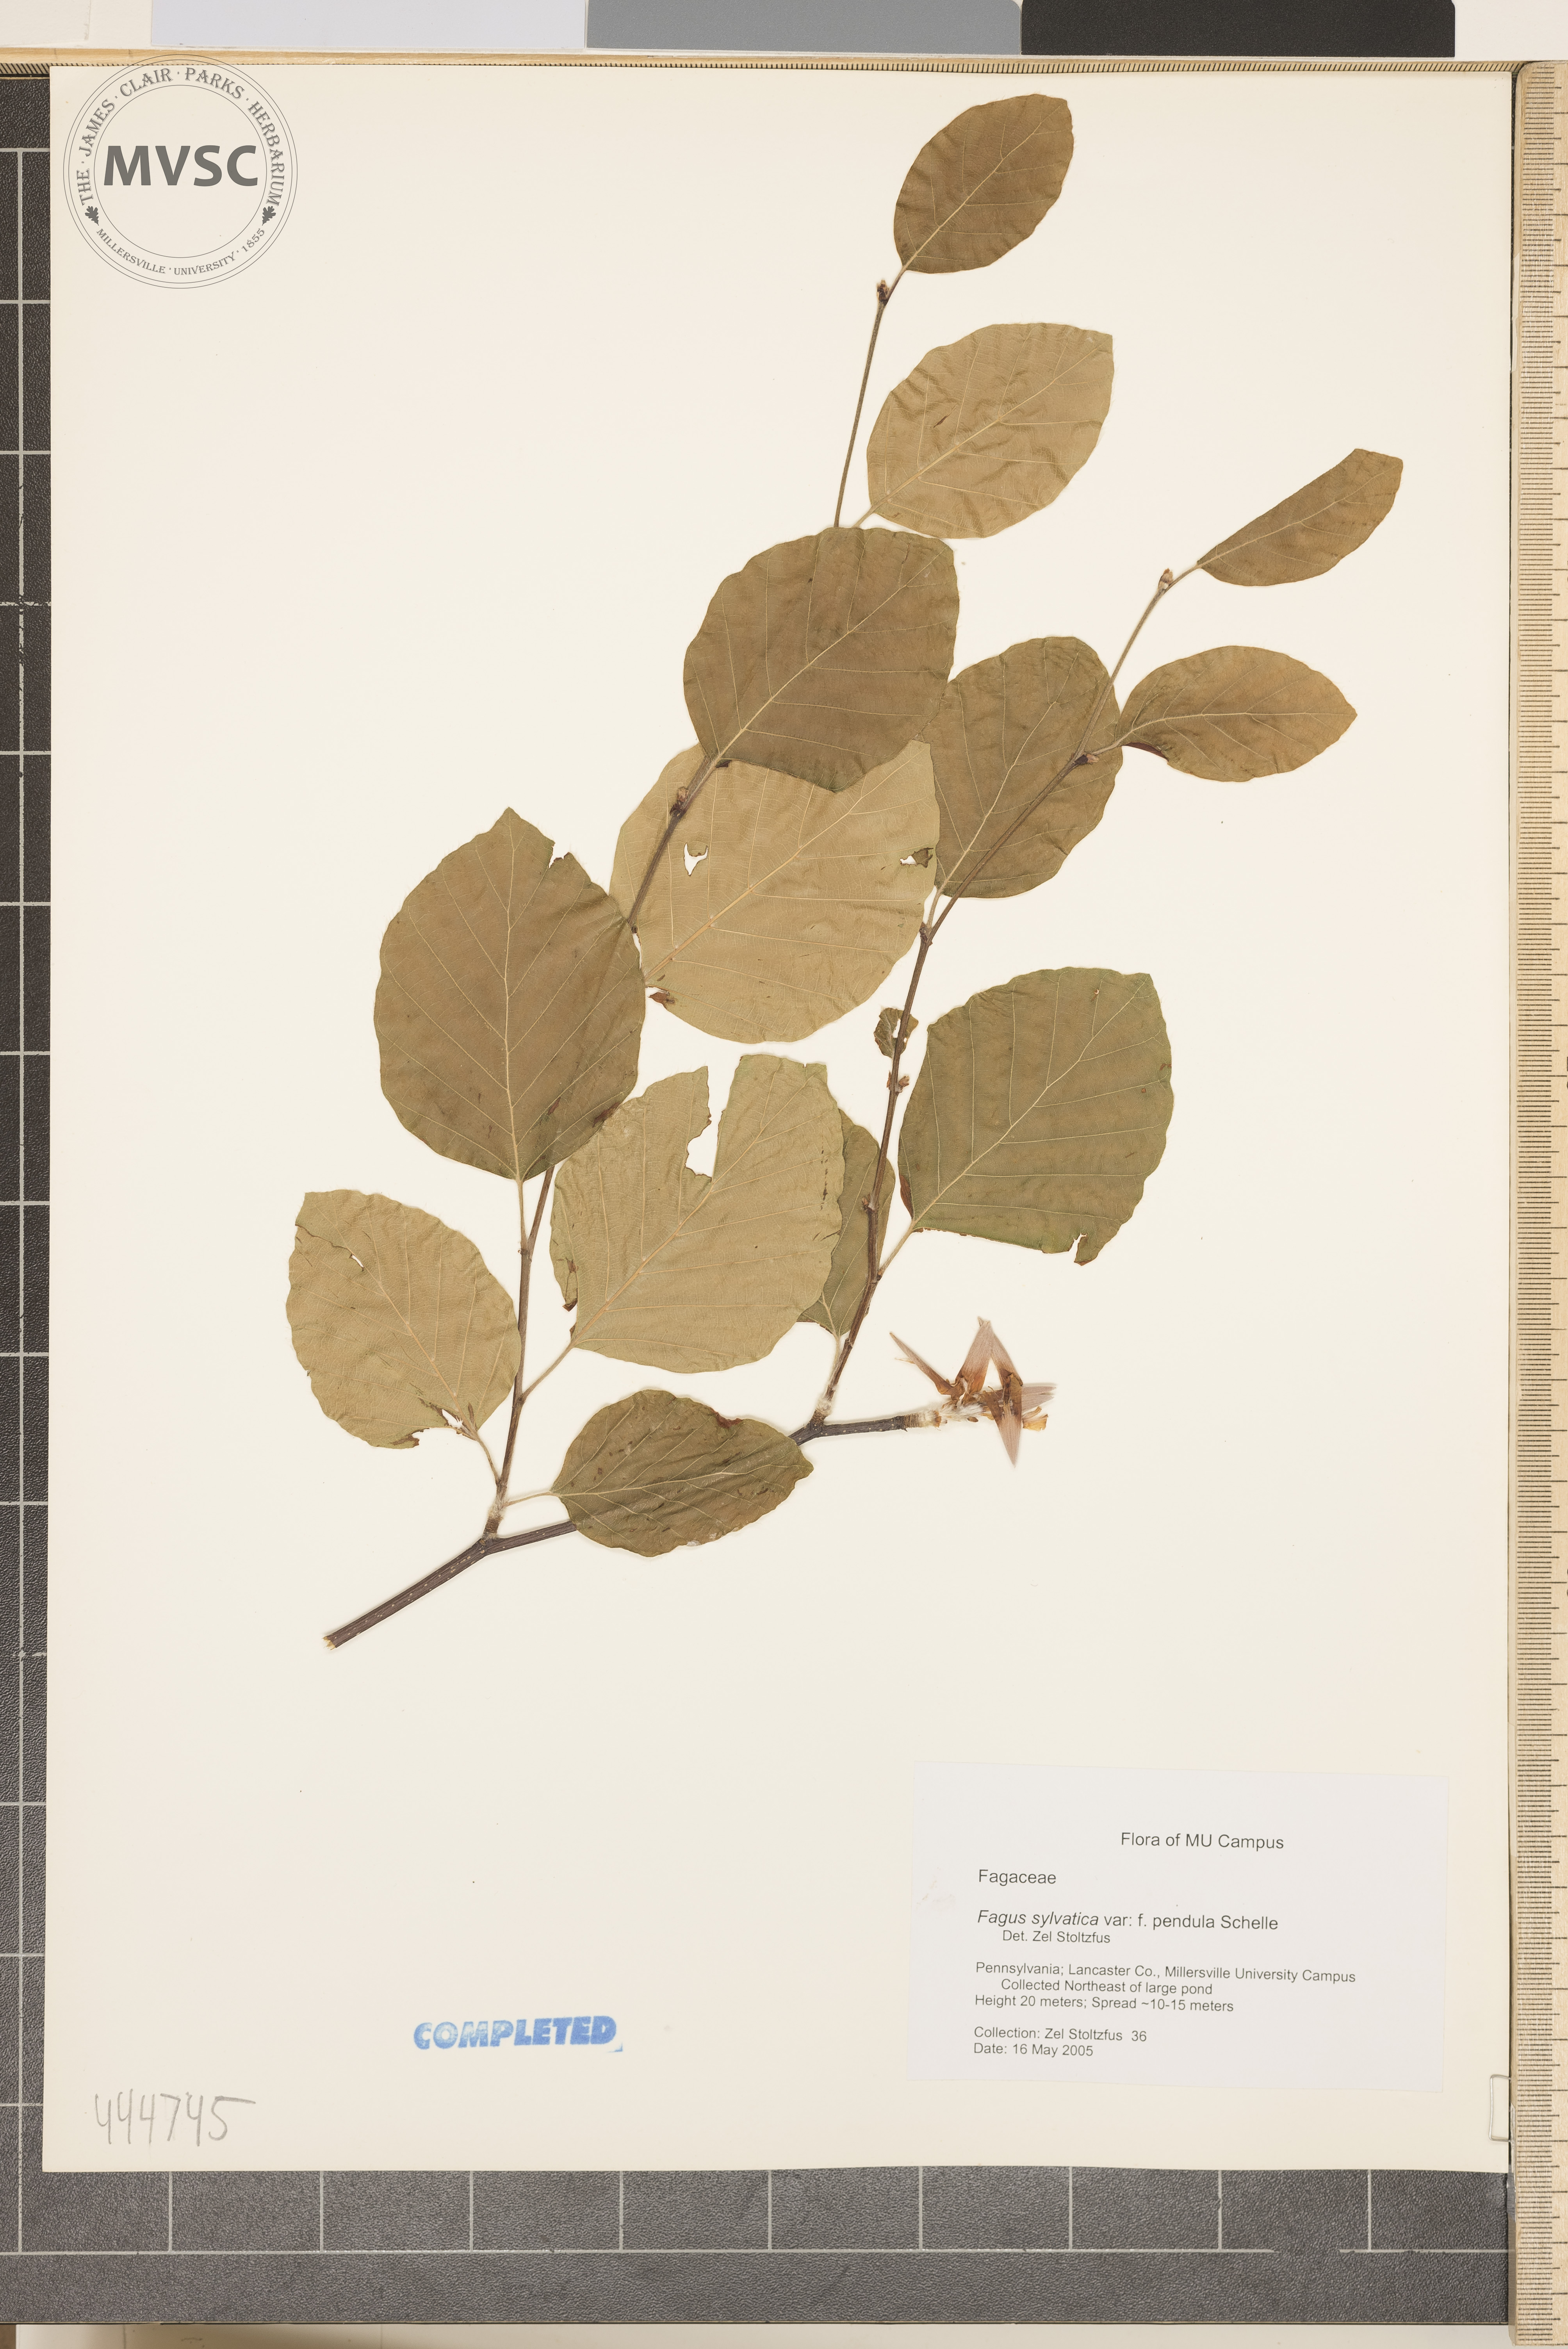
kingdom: Plantae
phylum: Tracheophyta
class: Magnoliopsida
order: Fagales
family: Fagaceae
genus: Fagus
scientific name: Fagus sylvatica
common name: Beech
